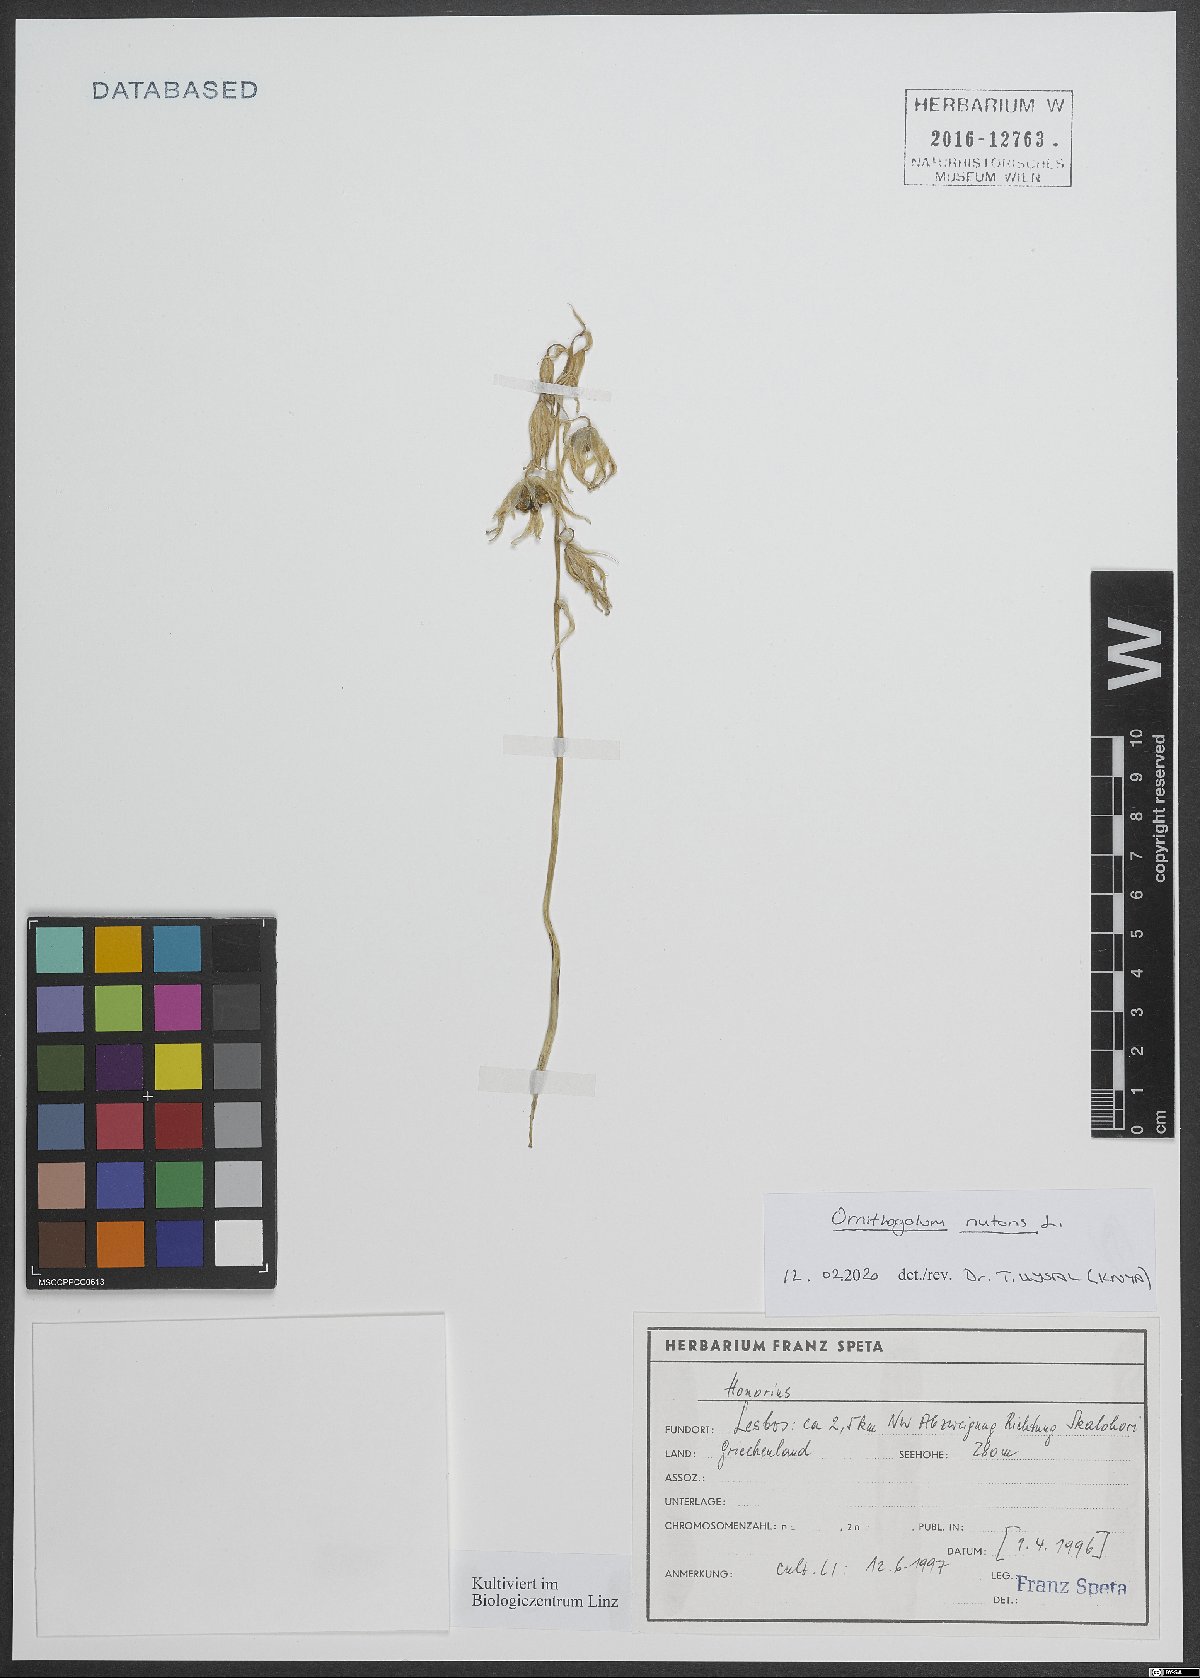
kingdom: Plantae
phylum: Tracheophyta
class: Liliopsida
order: Asparagales
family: Asparagaceae
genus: Ornithogalum
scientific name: Ornithogalum nutans
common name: Drooping star-of-bethlehem
